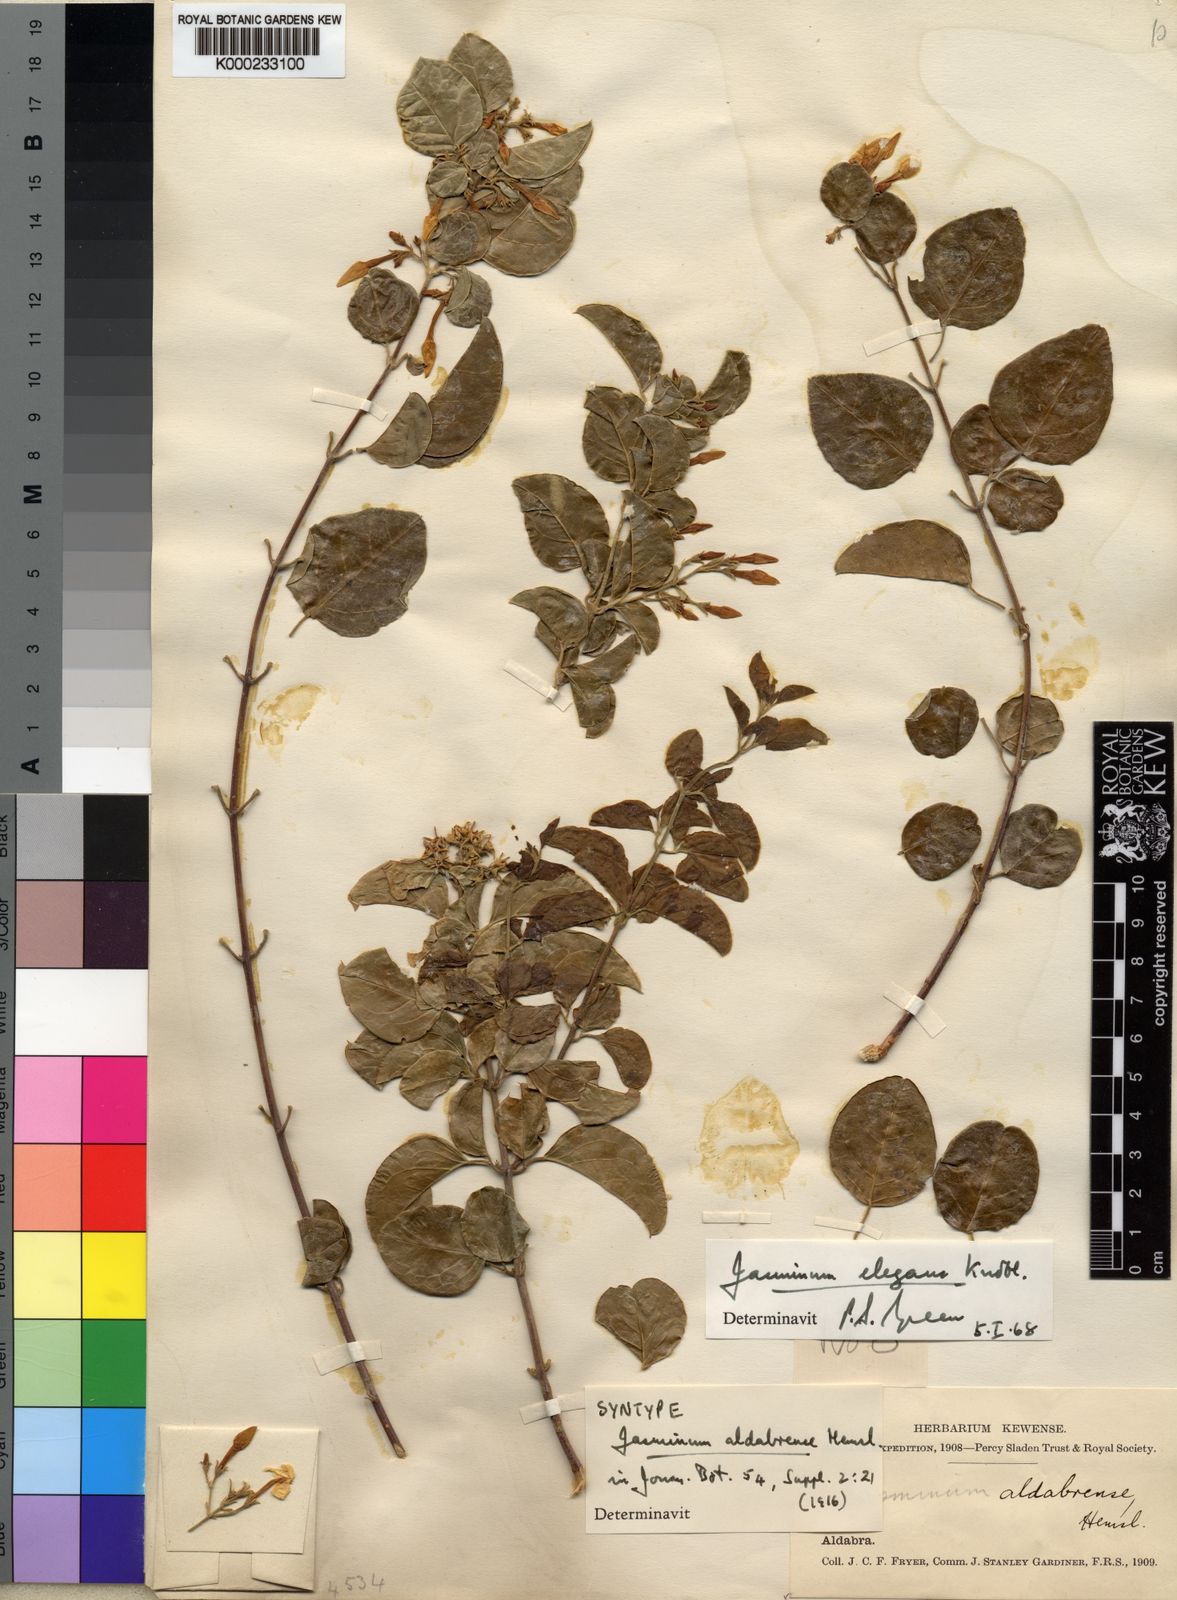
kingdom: Plantae
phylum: Tracheophyta
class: Magnoliopsida
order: Lamiales
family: Oleaceae
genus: Jasminum
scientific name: Jasminum elegans
